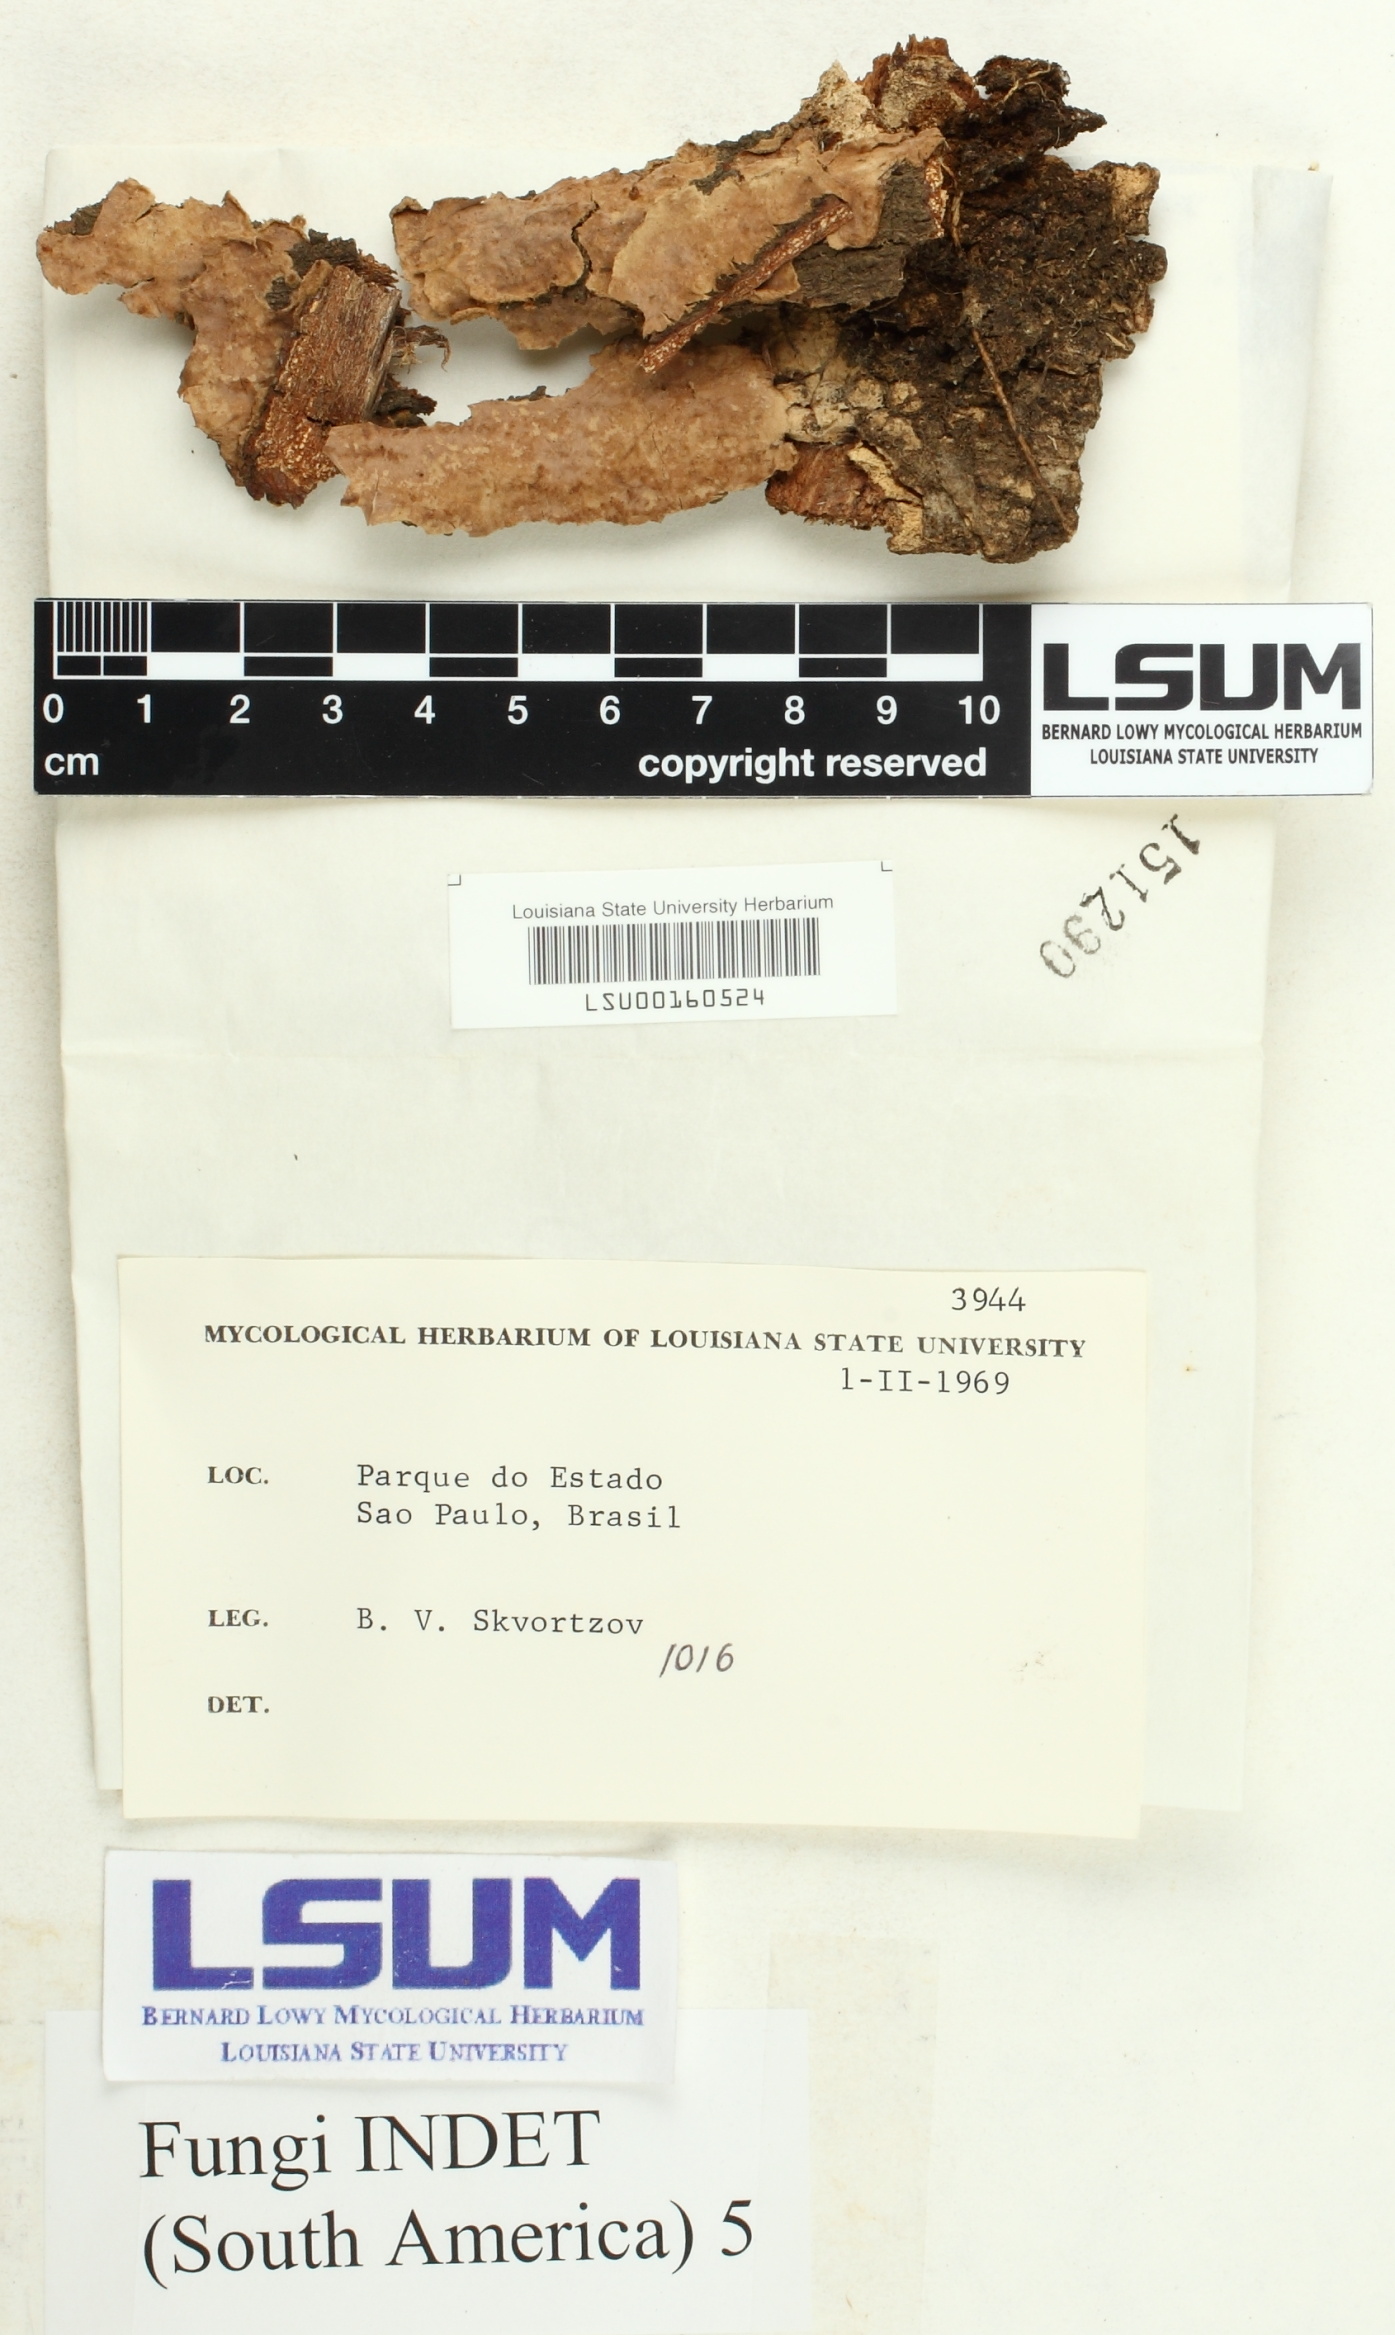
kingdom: Fungi
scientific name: Fungi
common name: Fungi
